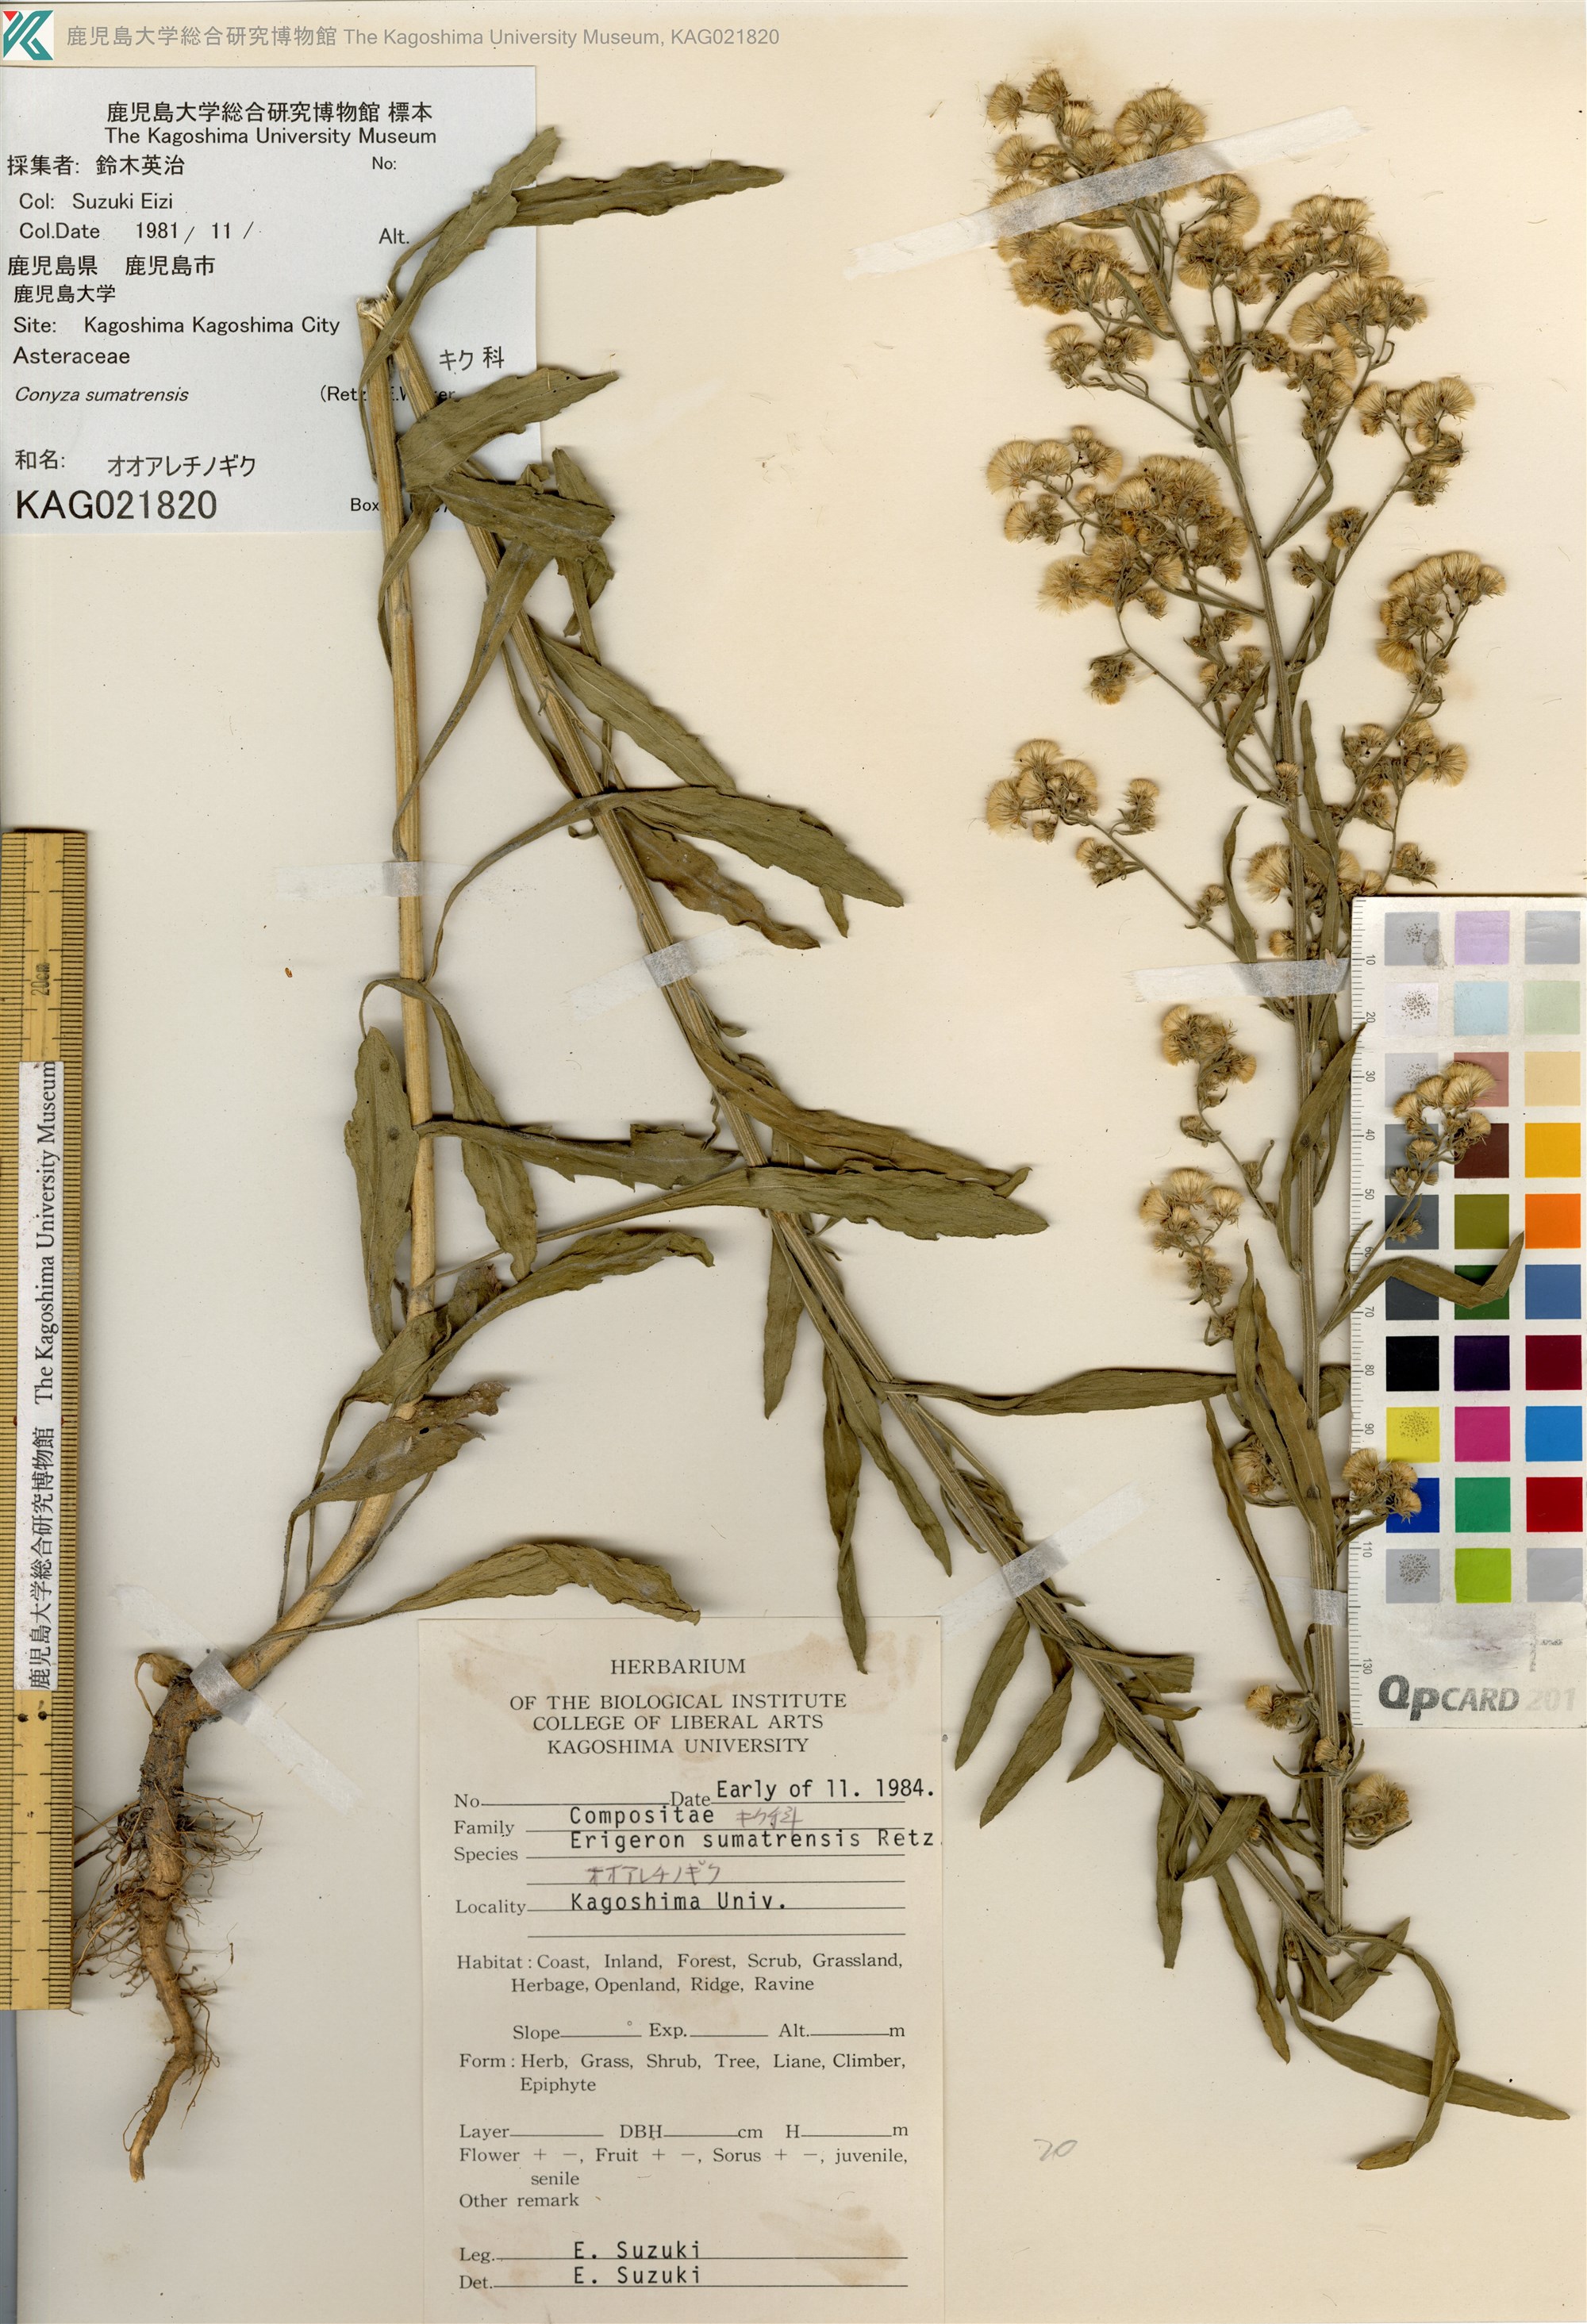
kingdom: Plantae
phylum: Tracheophyta
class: Magnoliopsida
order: Asterales
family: Asteraceae
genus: Erigeron
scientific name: Erigeron sumatrensis
